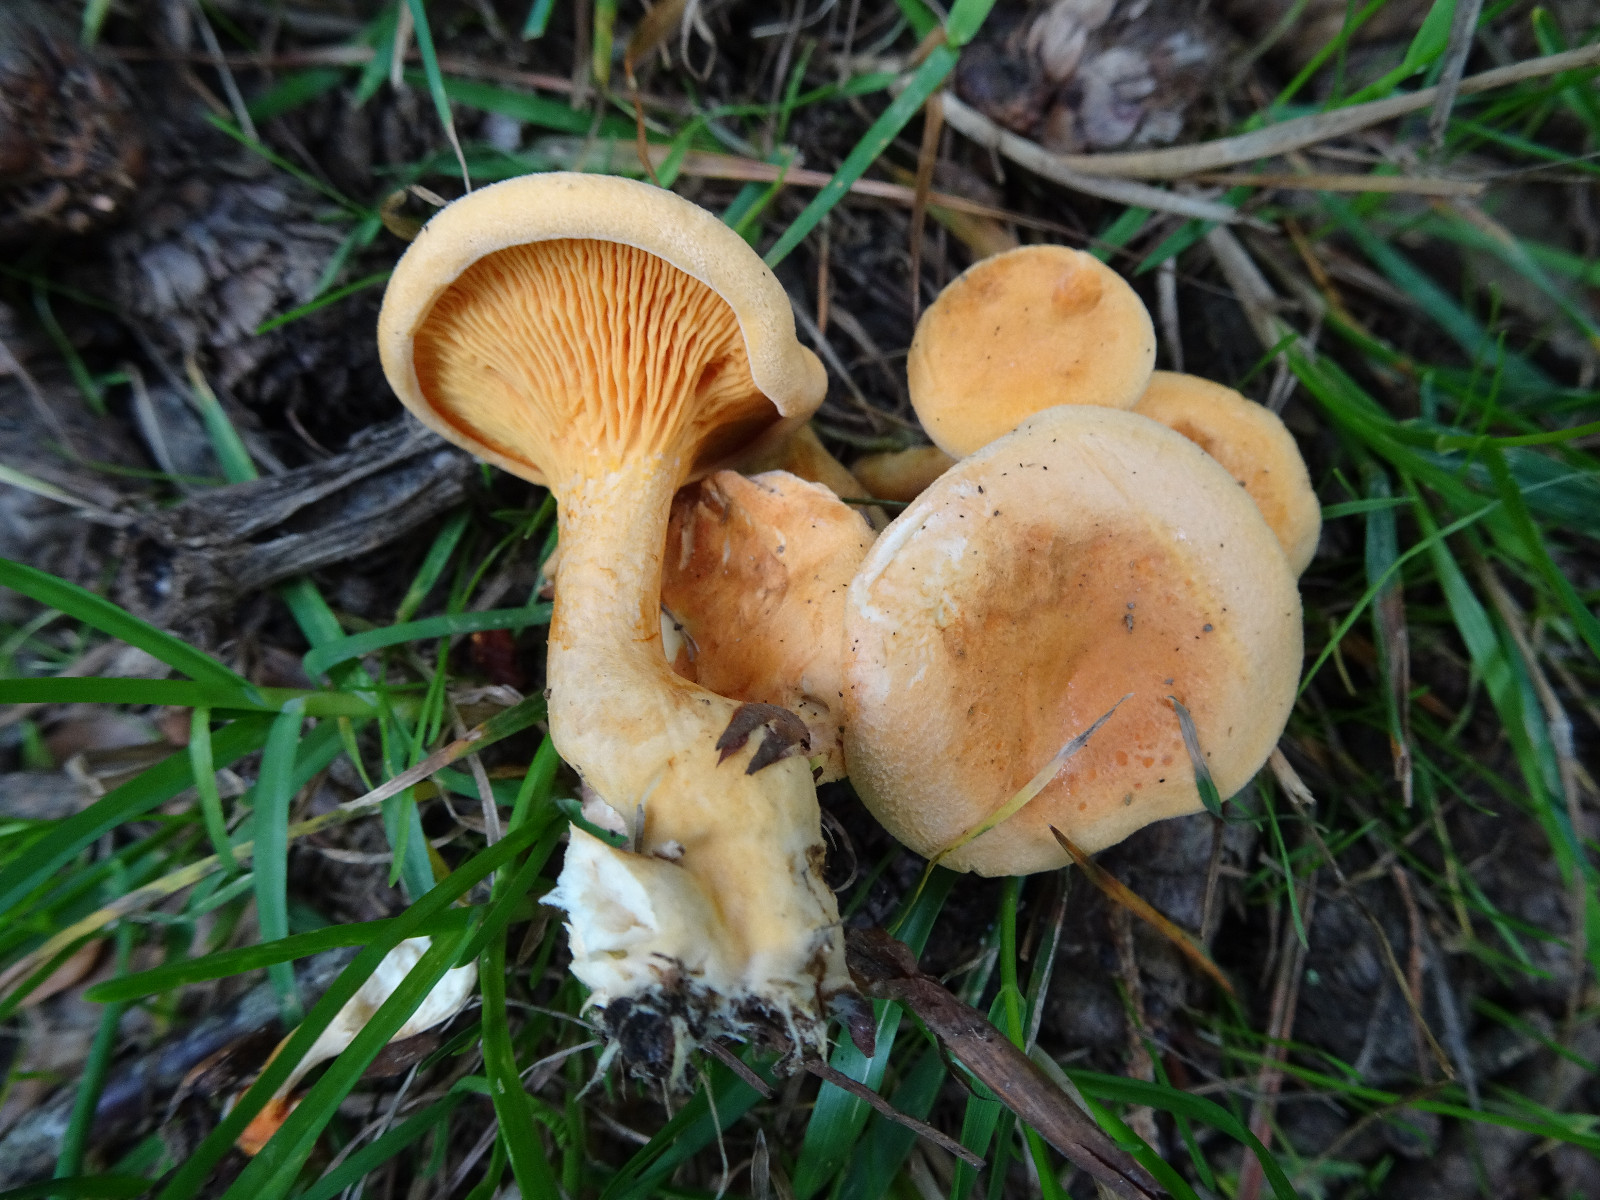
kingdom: Fungi
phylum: Basidiomycota
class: Agaricomycetes
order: Boletales
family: Hygrophoropsidaceae
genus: Hygrophoropsis
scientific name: Hygrophoropsis aurantiaca
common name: almindelig orangekantarel
